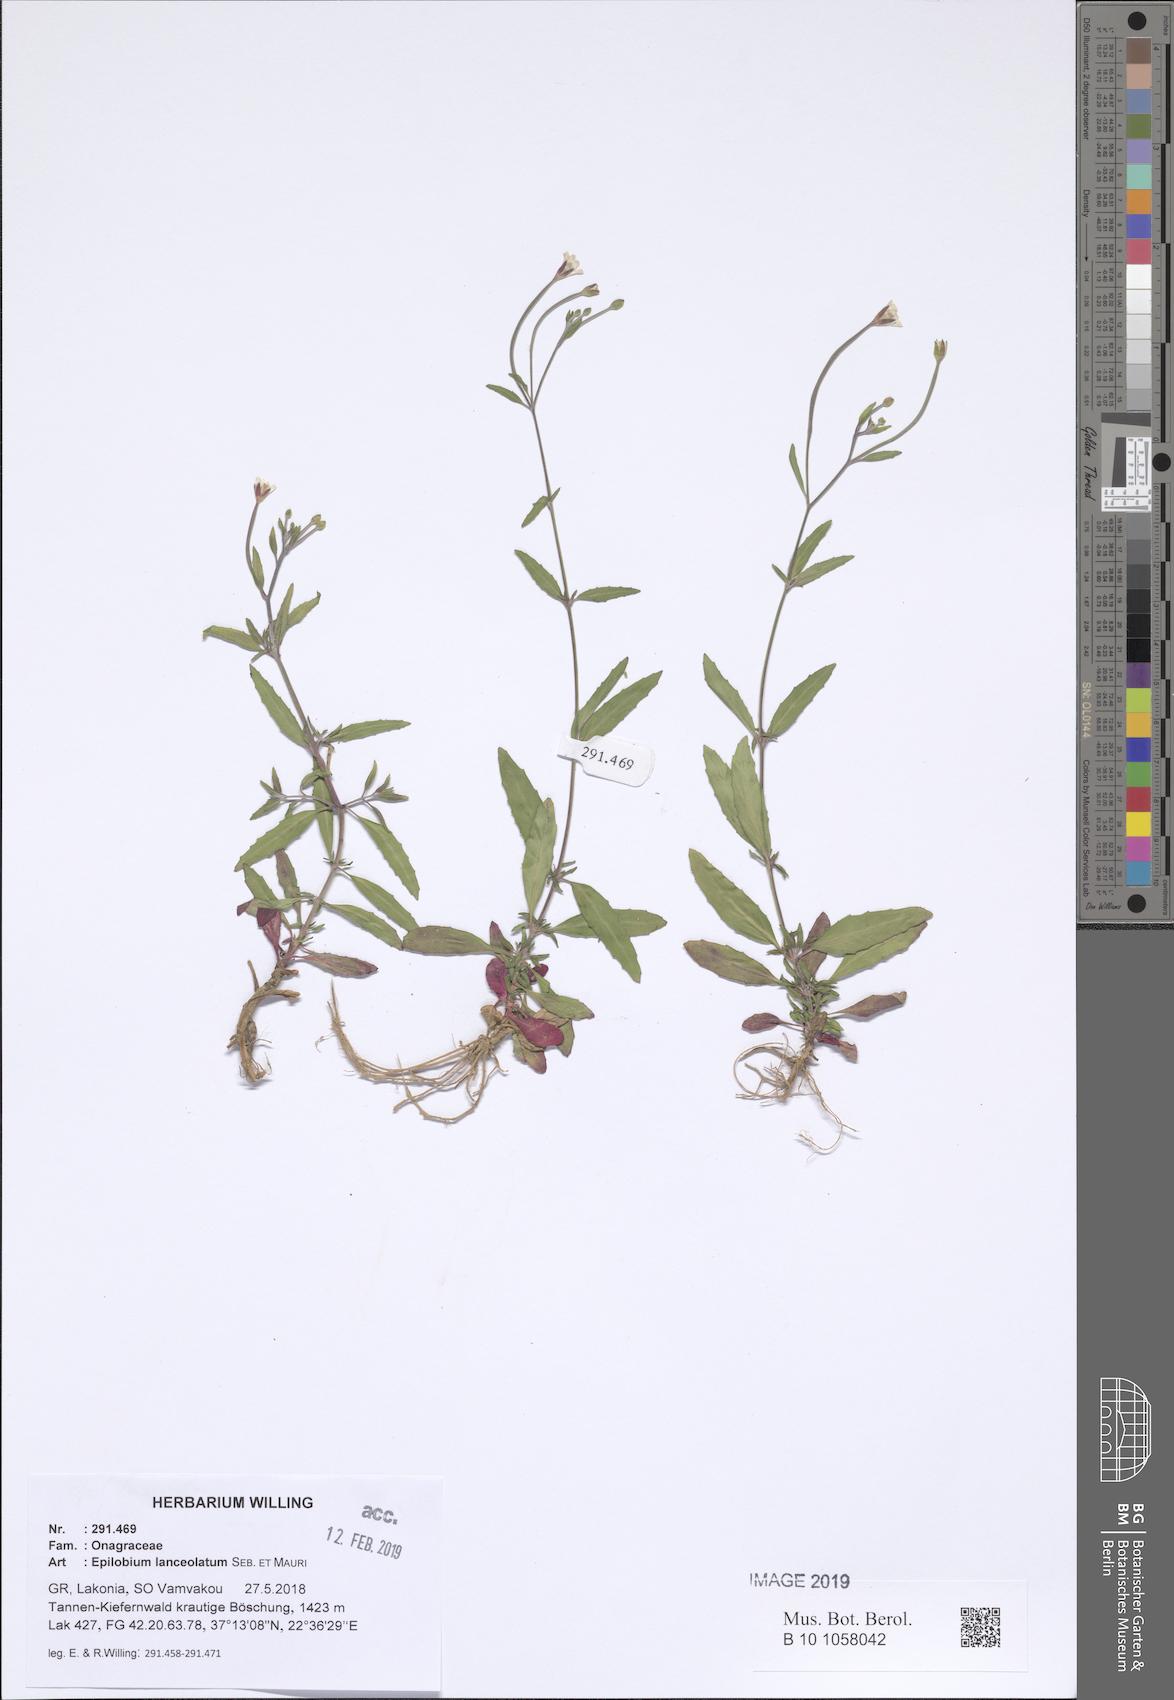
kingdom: Plantae
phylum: Tracheophyta
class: Magnoliopsida
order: Myrtales
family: Onagraceae
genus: Epilobium
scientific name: Epilobium lanceolatum
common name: Spear-leaved willowherb
